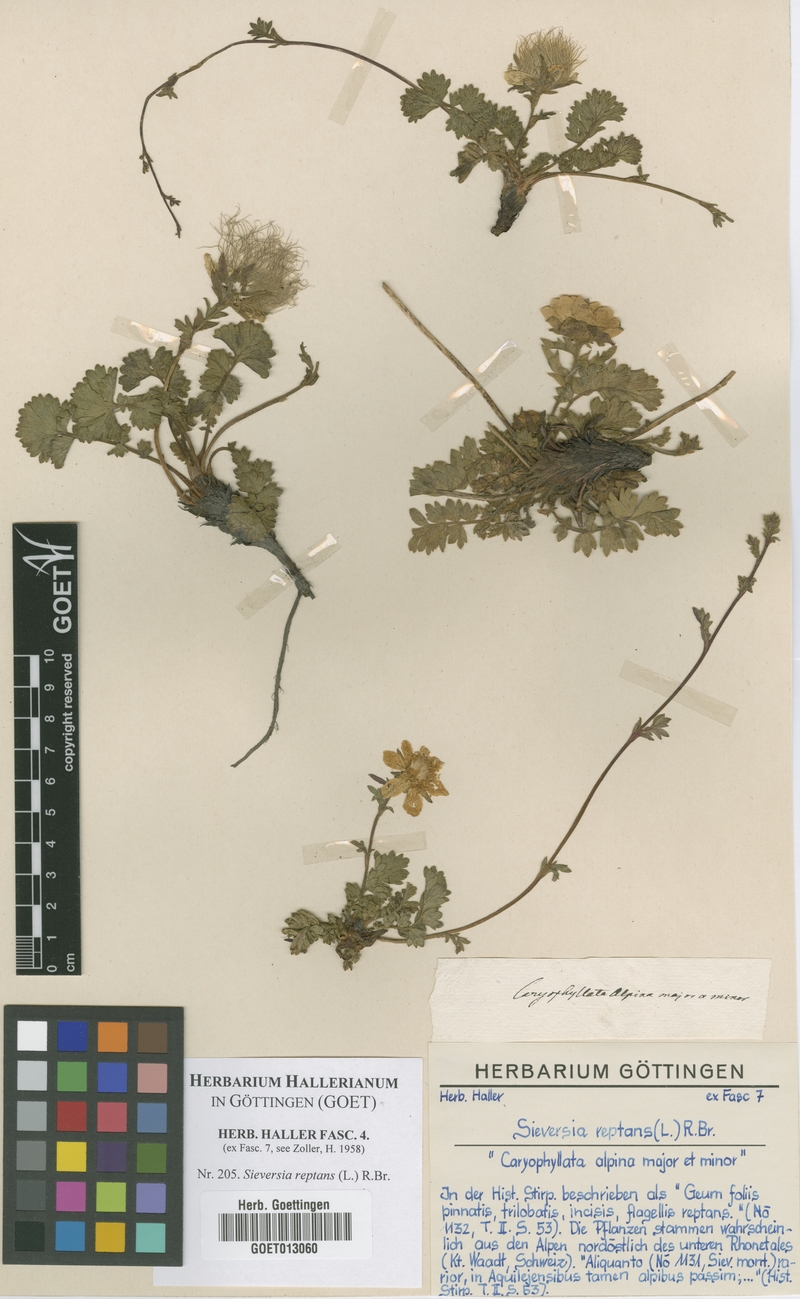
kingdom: Plantae
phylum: Tracheophyta
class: Magnoliopsida
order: Rosales
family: Rosaceae
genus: Geum
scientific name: Geum reptans
